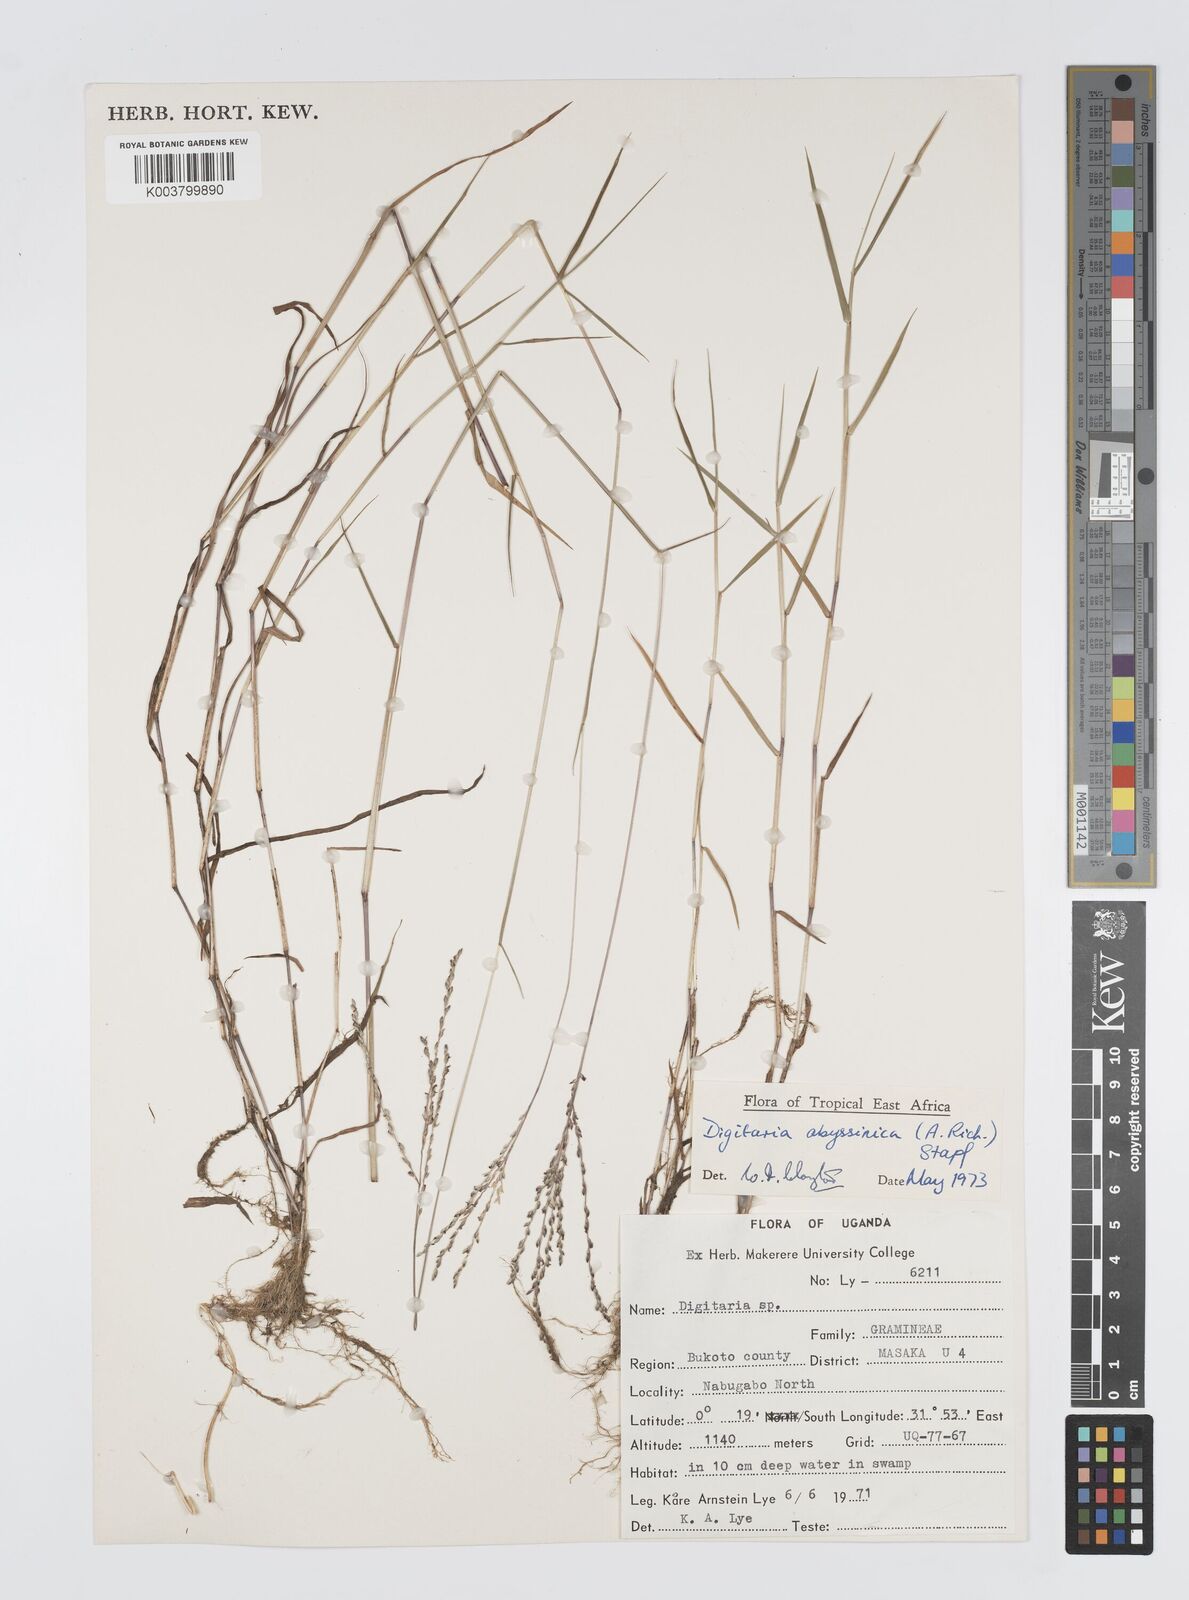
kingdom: Plantae
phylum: Tracheophyta
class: Liliopsida
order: Poales
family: Poaceae
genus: Digitaria
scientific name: Digitaria abyssinica
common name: African couchgrass
